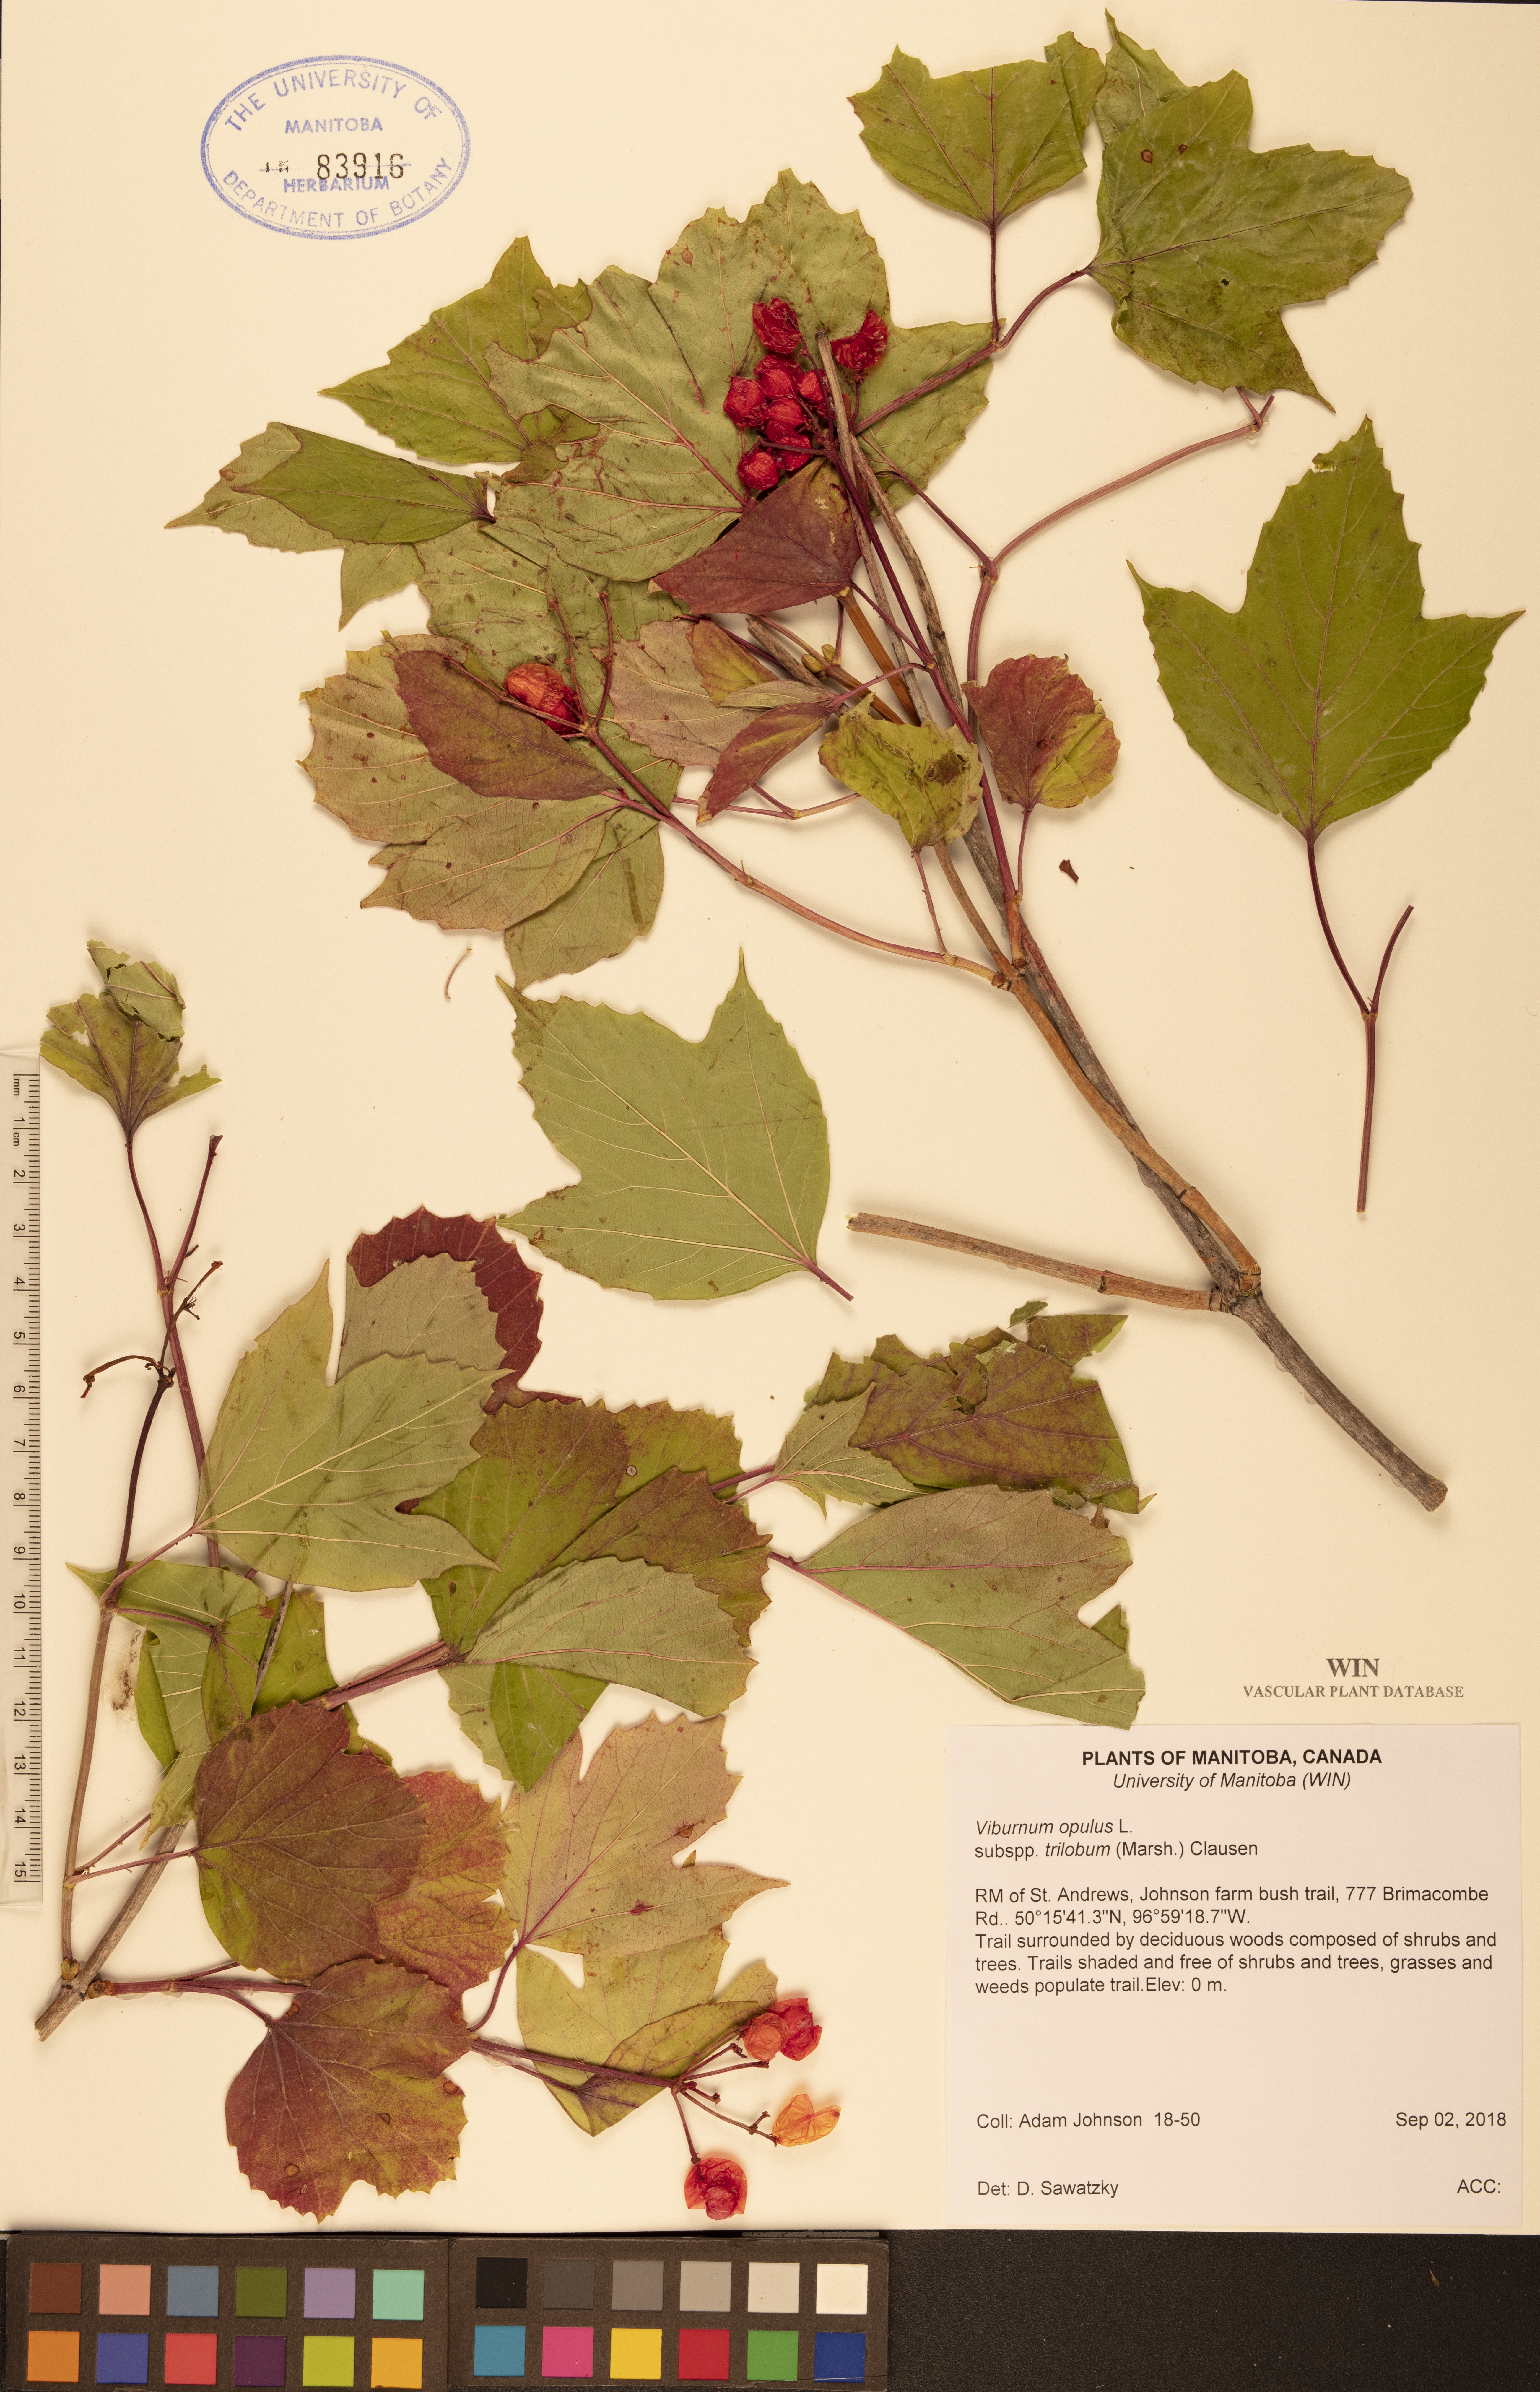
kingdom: Plantae
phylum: Tracheophyta
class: Magnoliopsida
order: Dipsacales
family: Viburnaceae
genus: Viburnum
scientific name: Viburnum trilobum
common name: American cranberrybush
